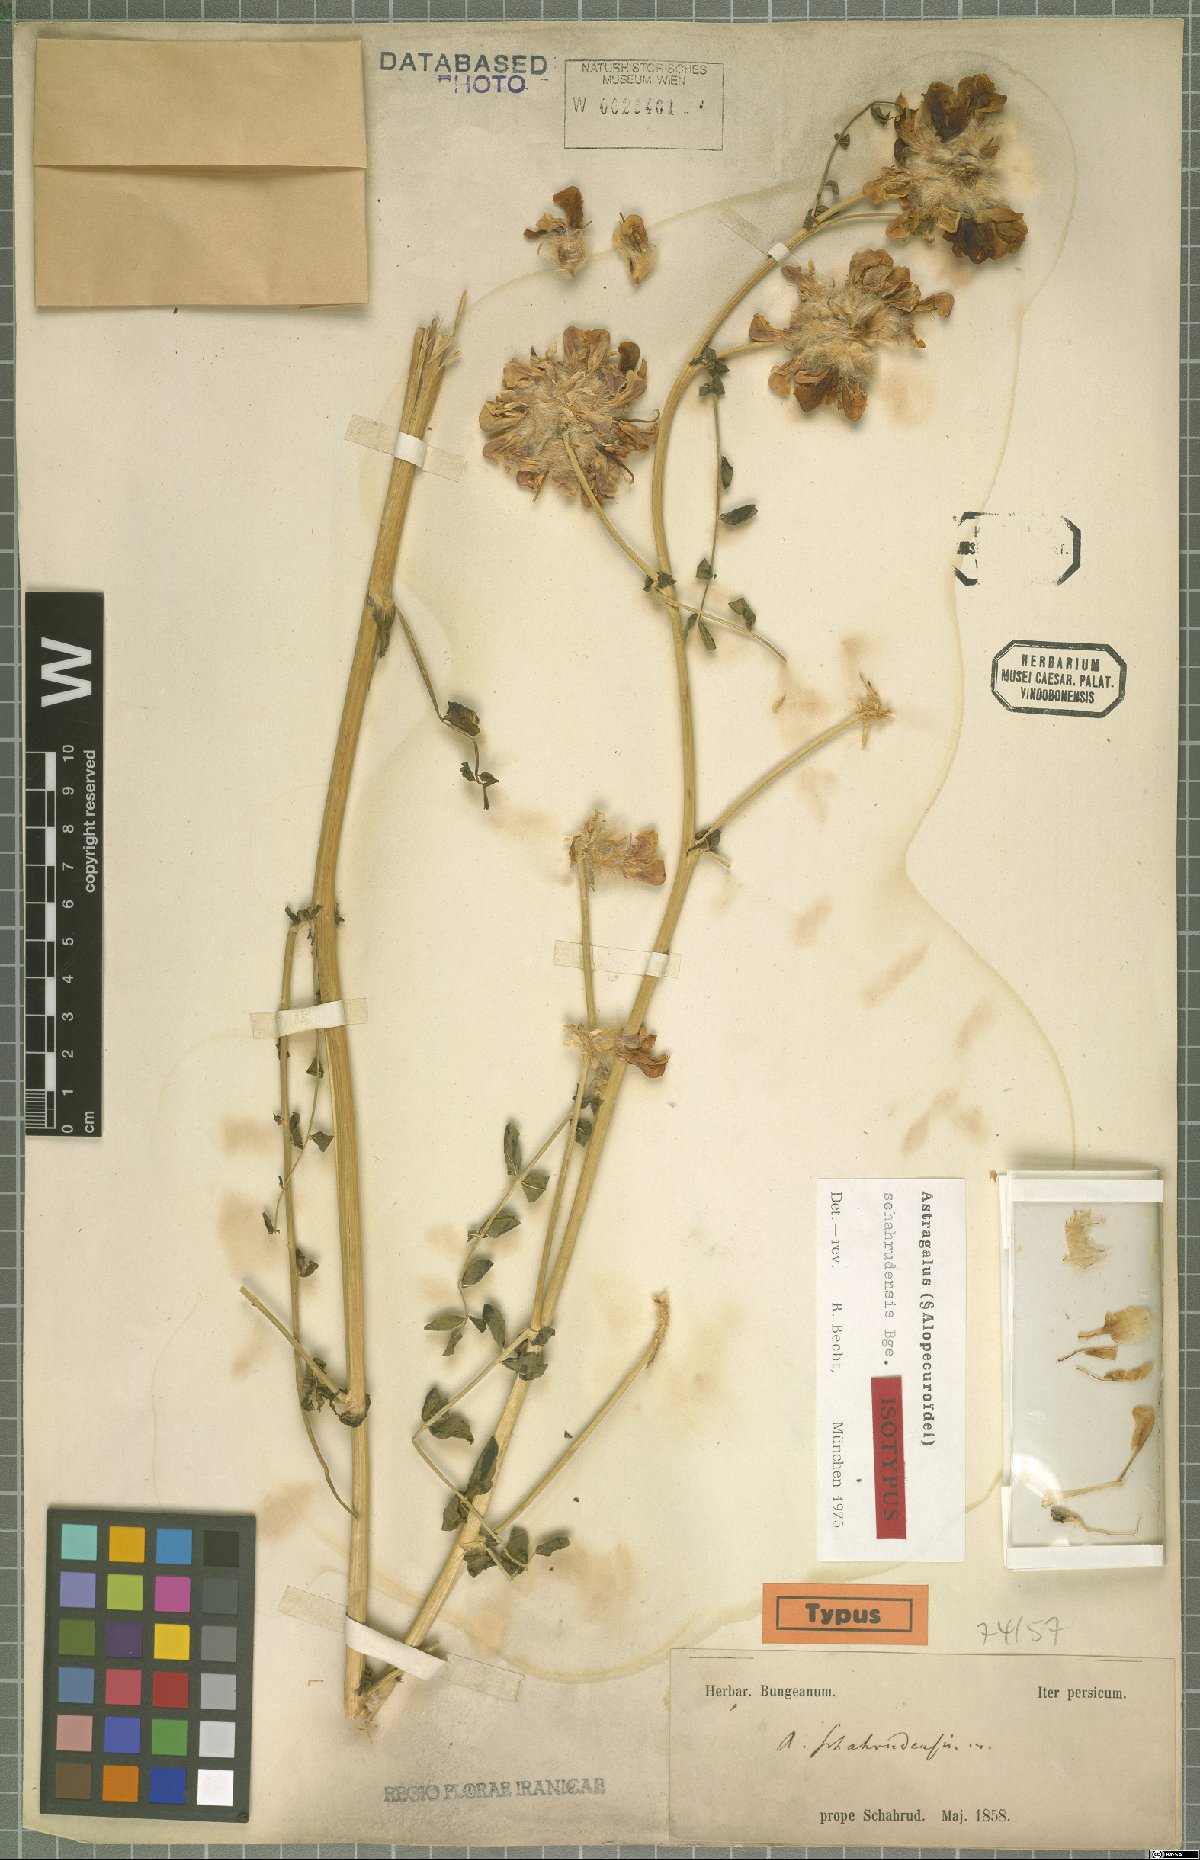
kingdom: Plantae
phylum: Tracheophyta
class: Magnoliopsida
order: Fabales
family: Fabaceae
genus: Astragalus
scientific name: Astragalus schahrudensis
